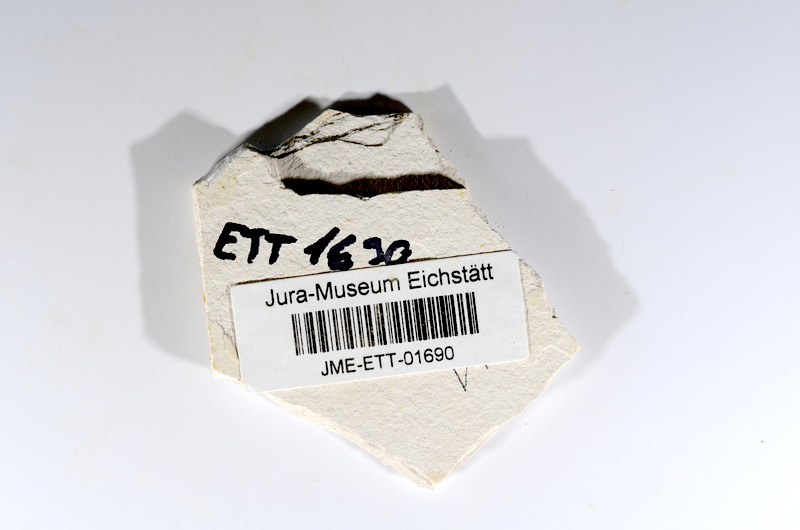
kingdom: Animalia
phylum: Chordata
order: Salmoniformes
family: Orthogonikleithridae
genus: Orthogonikleithrus
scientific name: Orthogonikleithrus hoelli
